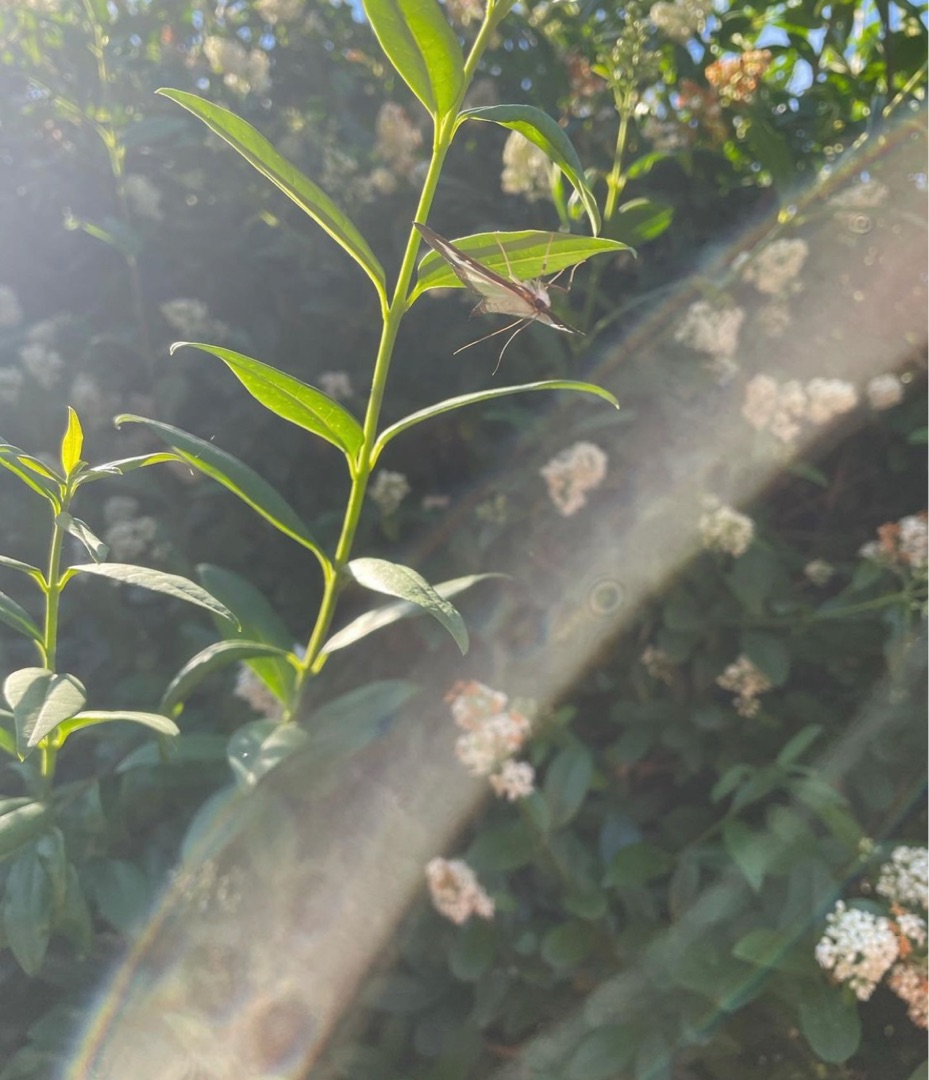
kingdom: Animalia
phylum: Arthropoda
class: Insecta
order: Lepidoptera
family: Crambidae
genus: Cydalima
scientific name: Cydalima perspectalis
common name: Buksbomhalvmøl
